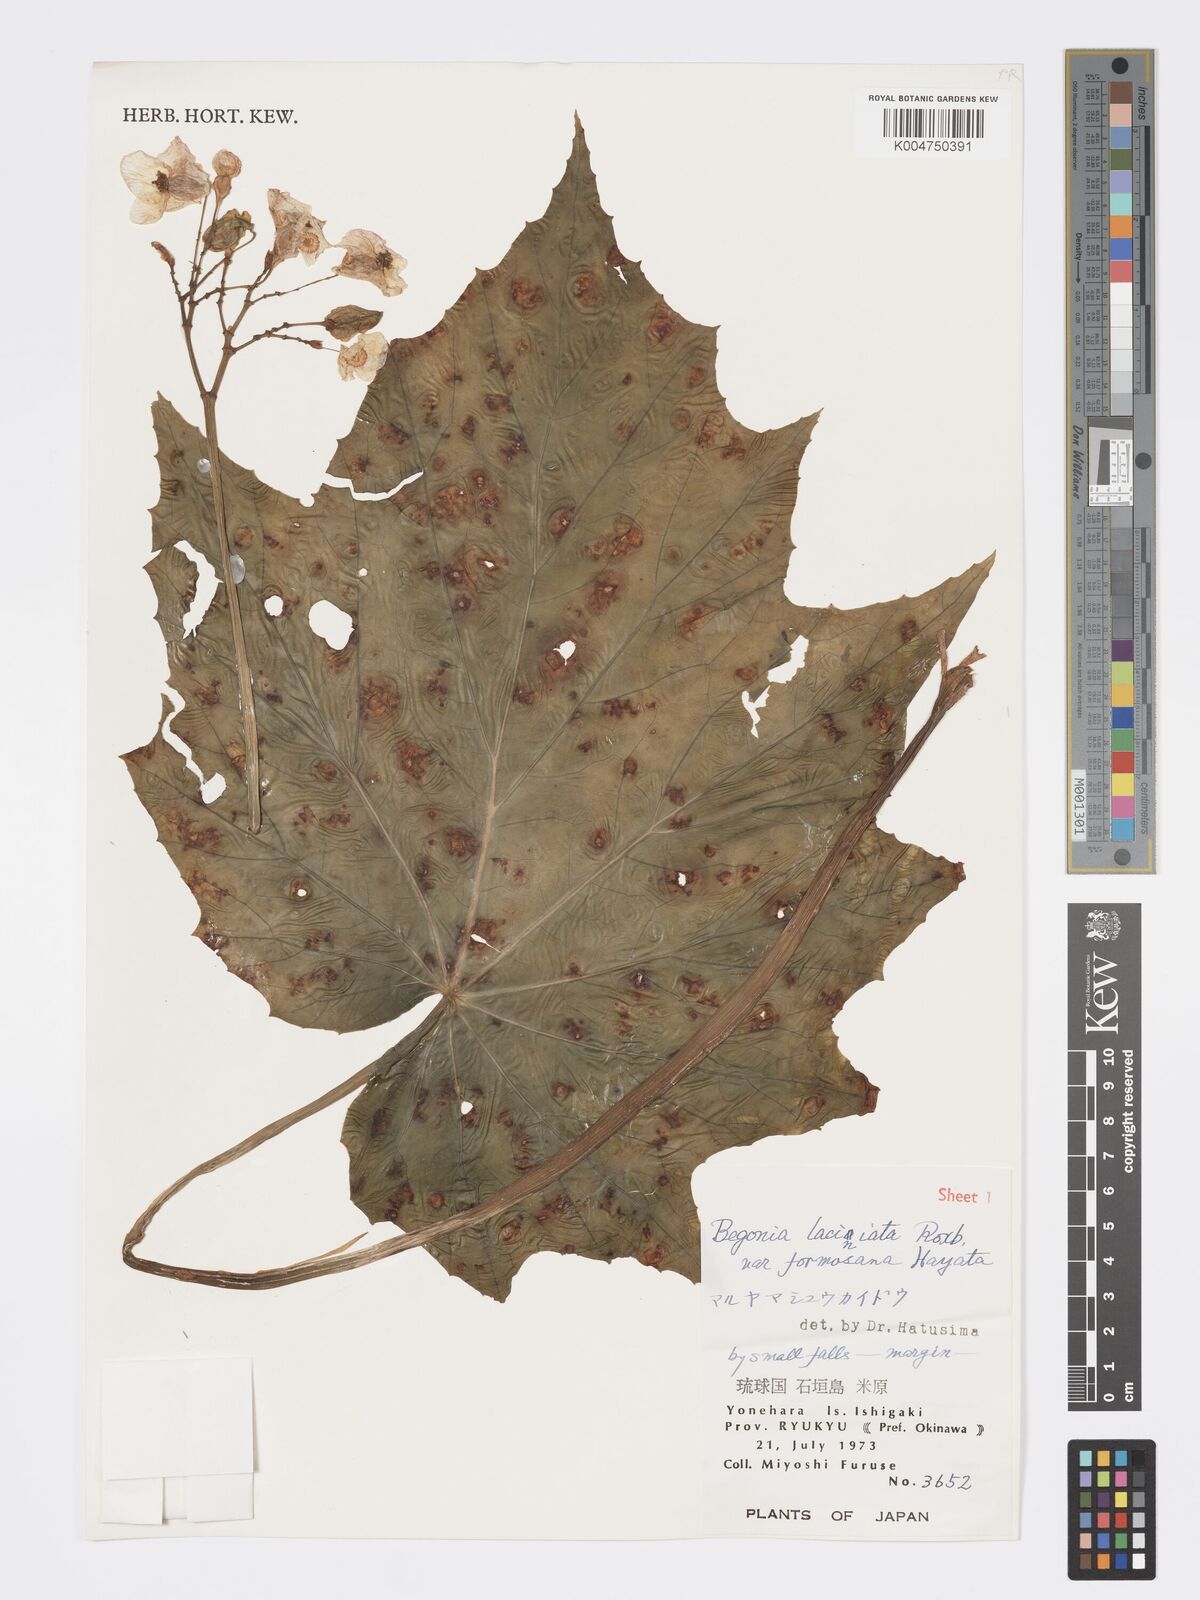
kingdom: Plantae
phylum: Tracheophyta
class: Magnoliopsida
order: Cucurbitales
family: Begoniaceae
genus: Begonia
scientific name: Begonia formosana
